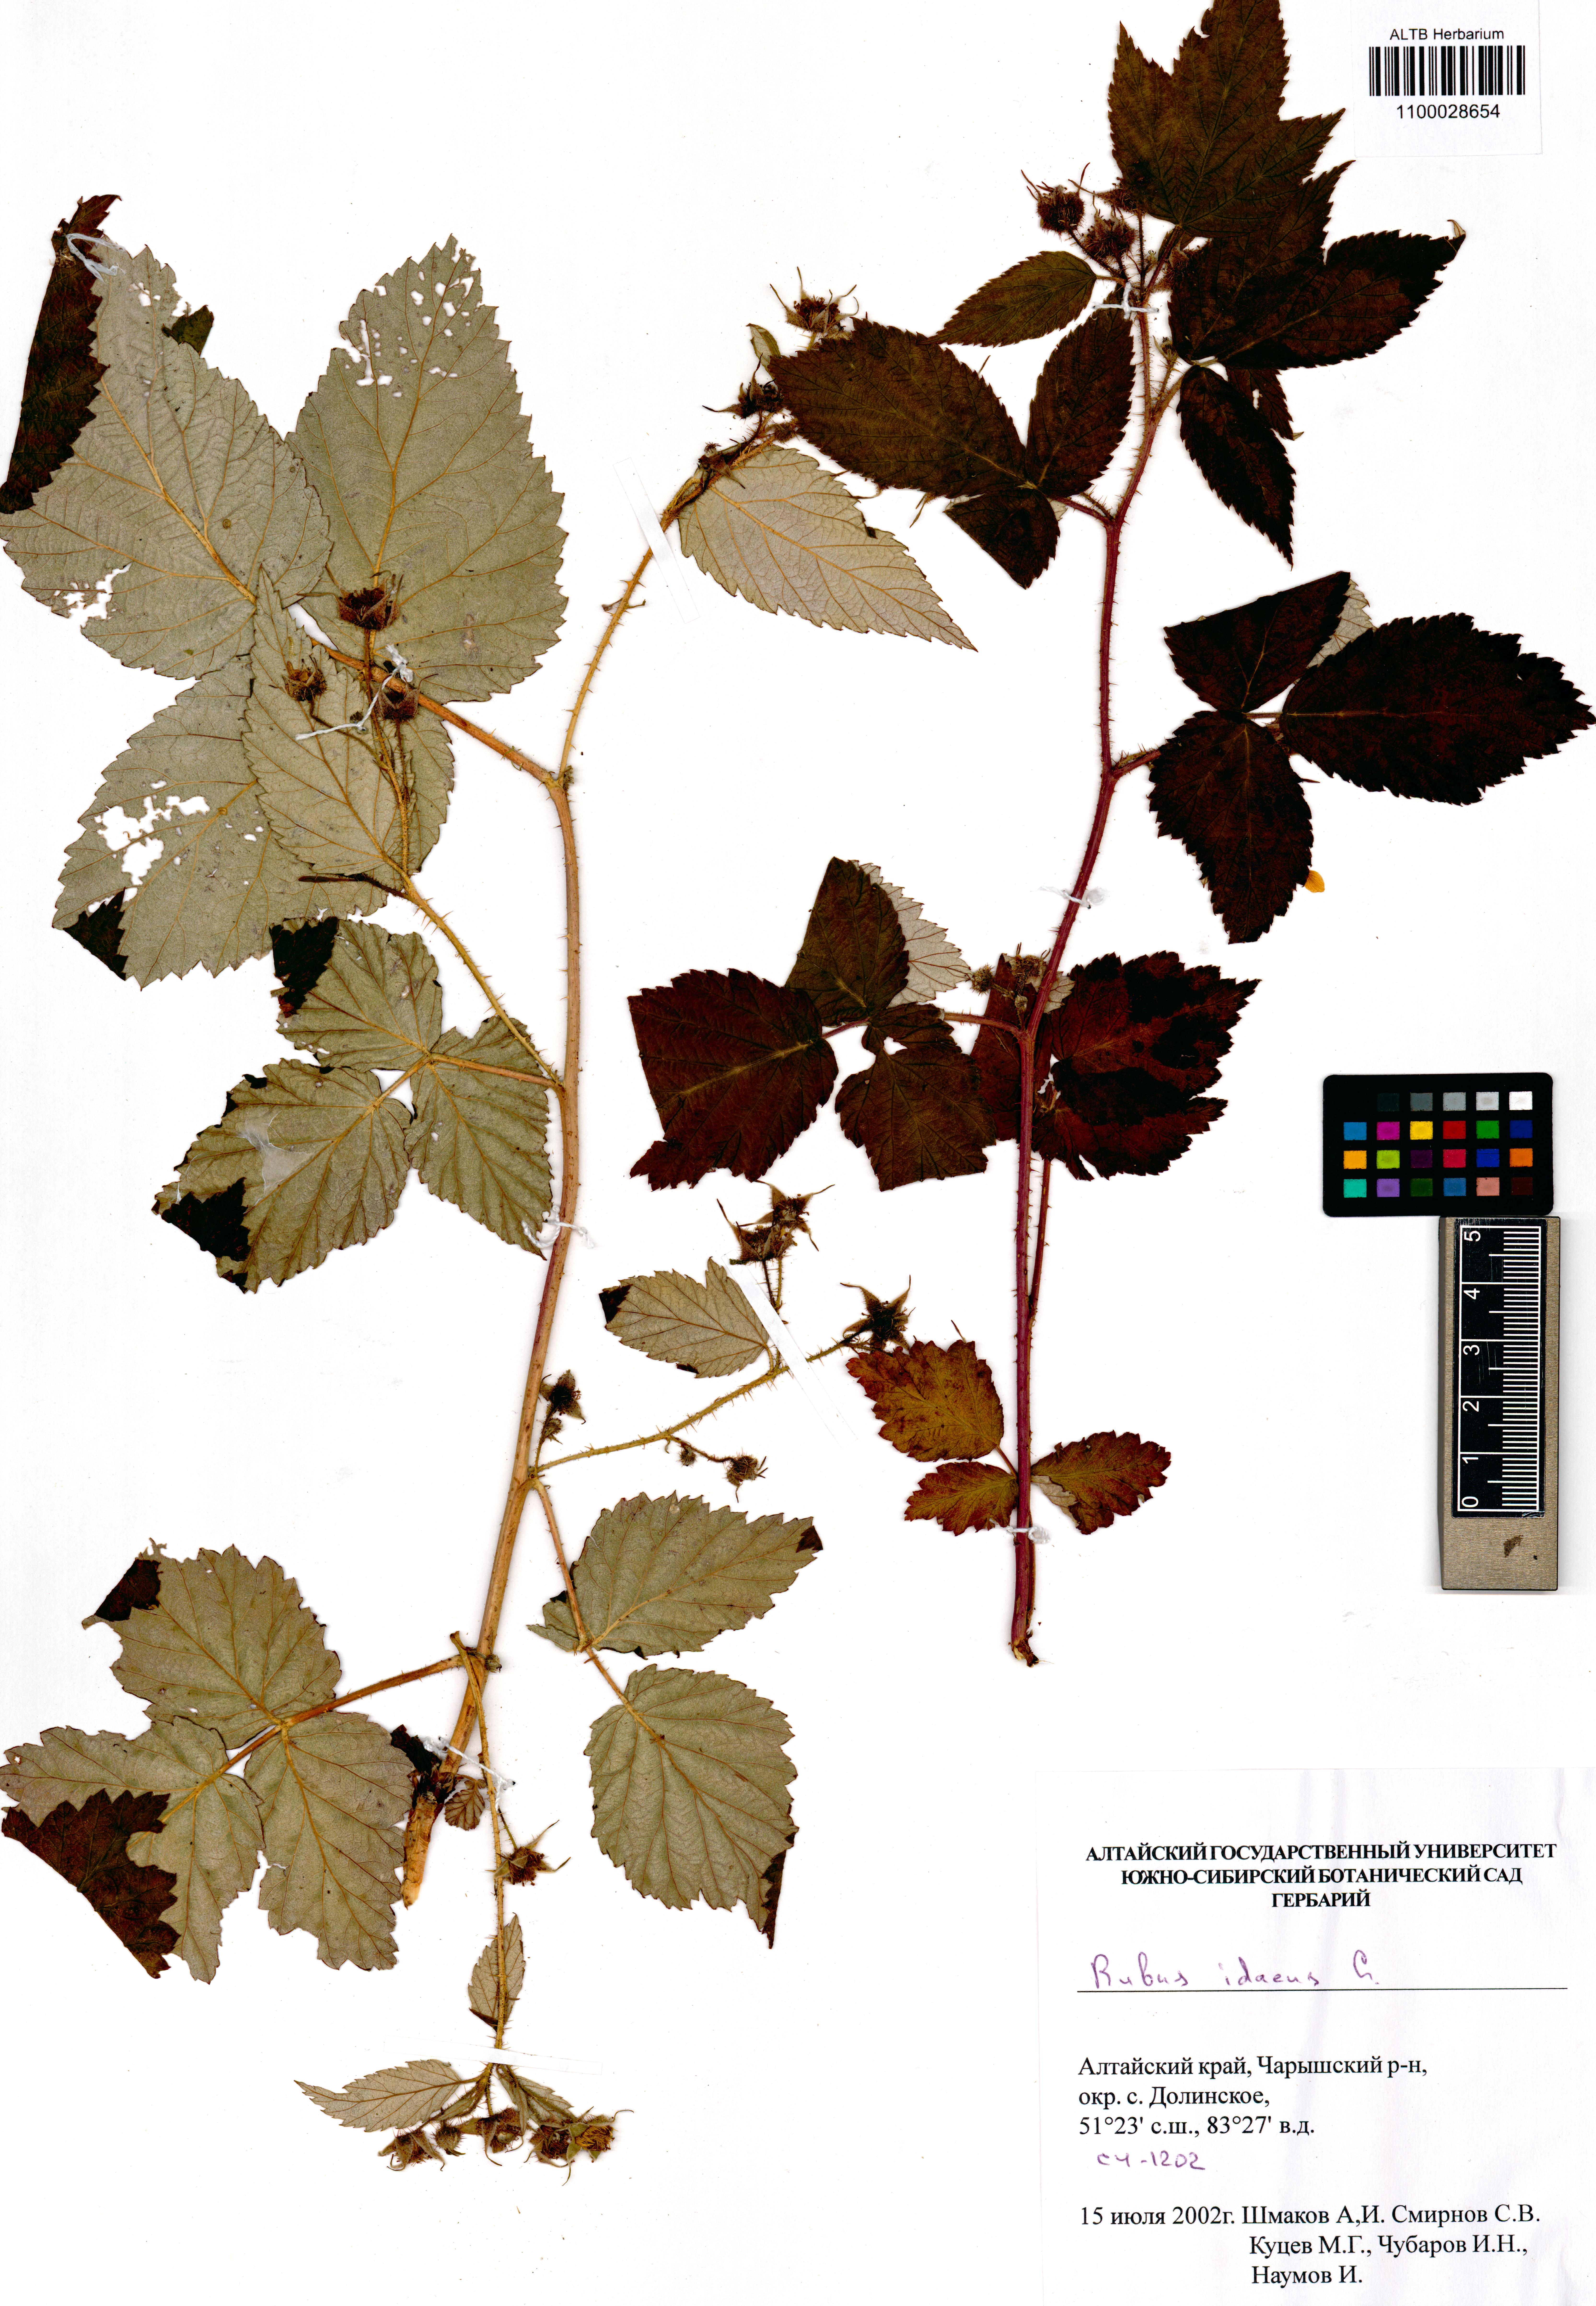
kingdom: Plantae
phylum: Tracheophyta
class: Magnoliopsida
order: Rosales
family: Rosaceae
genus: Rubus
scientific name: Rubus idaeus
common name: Raspberry
